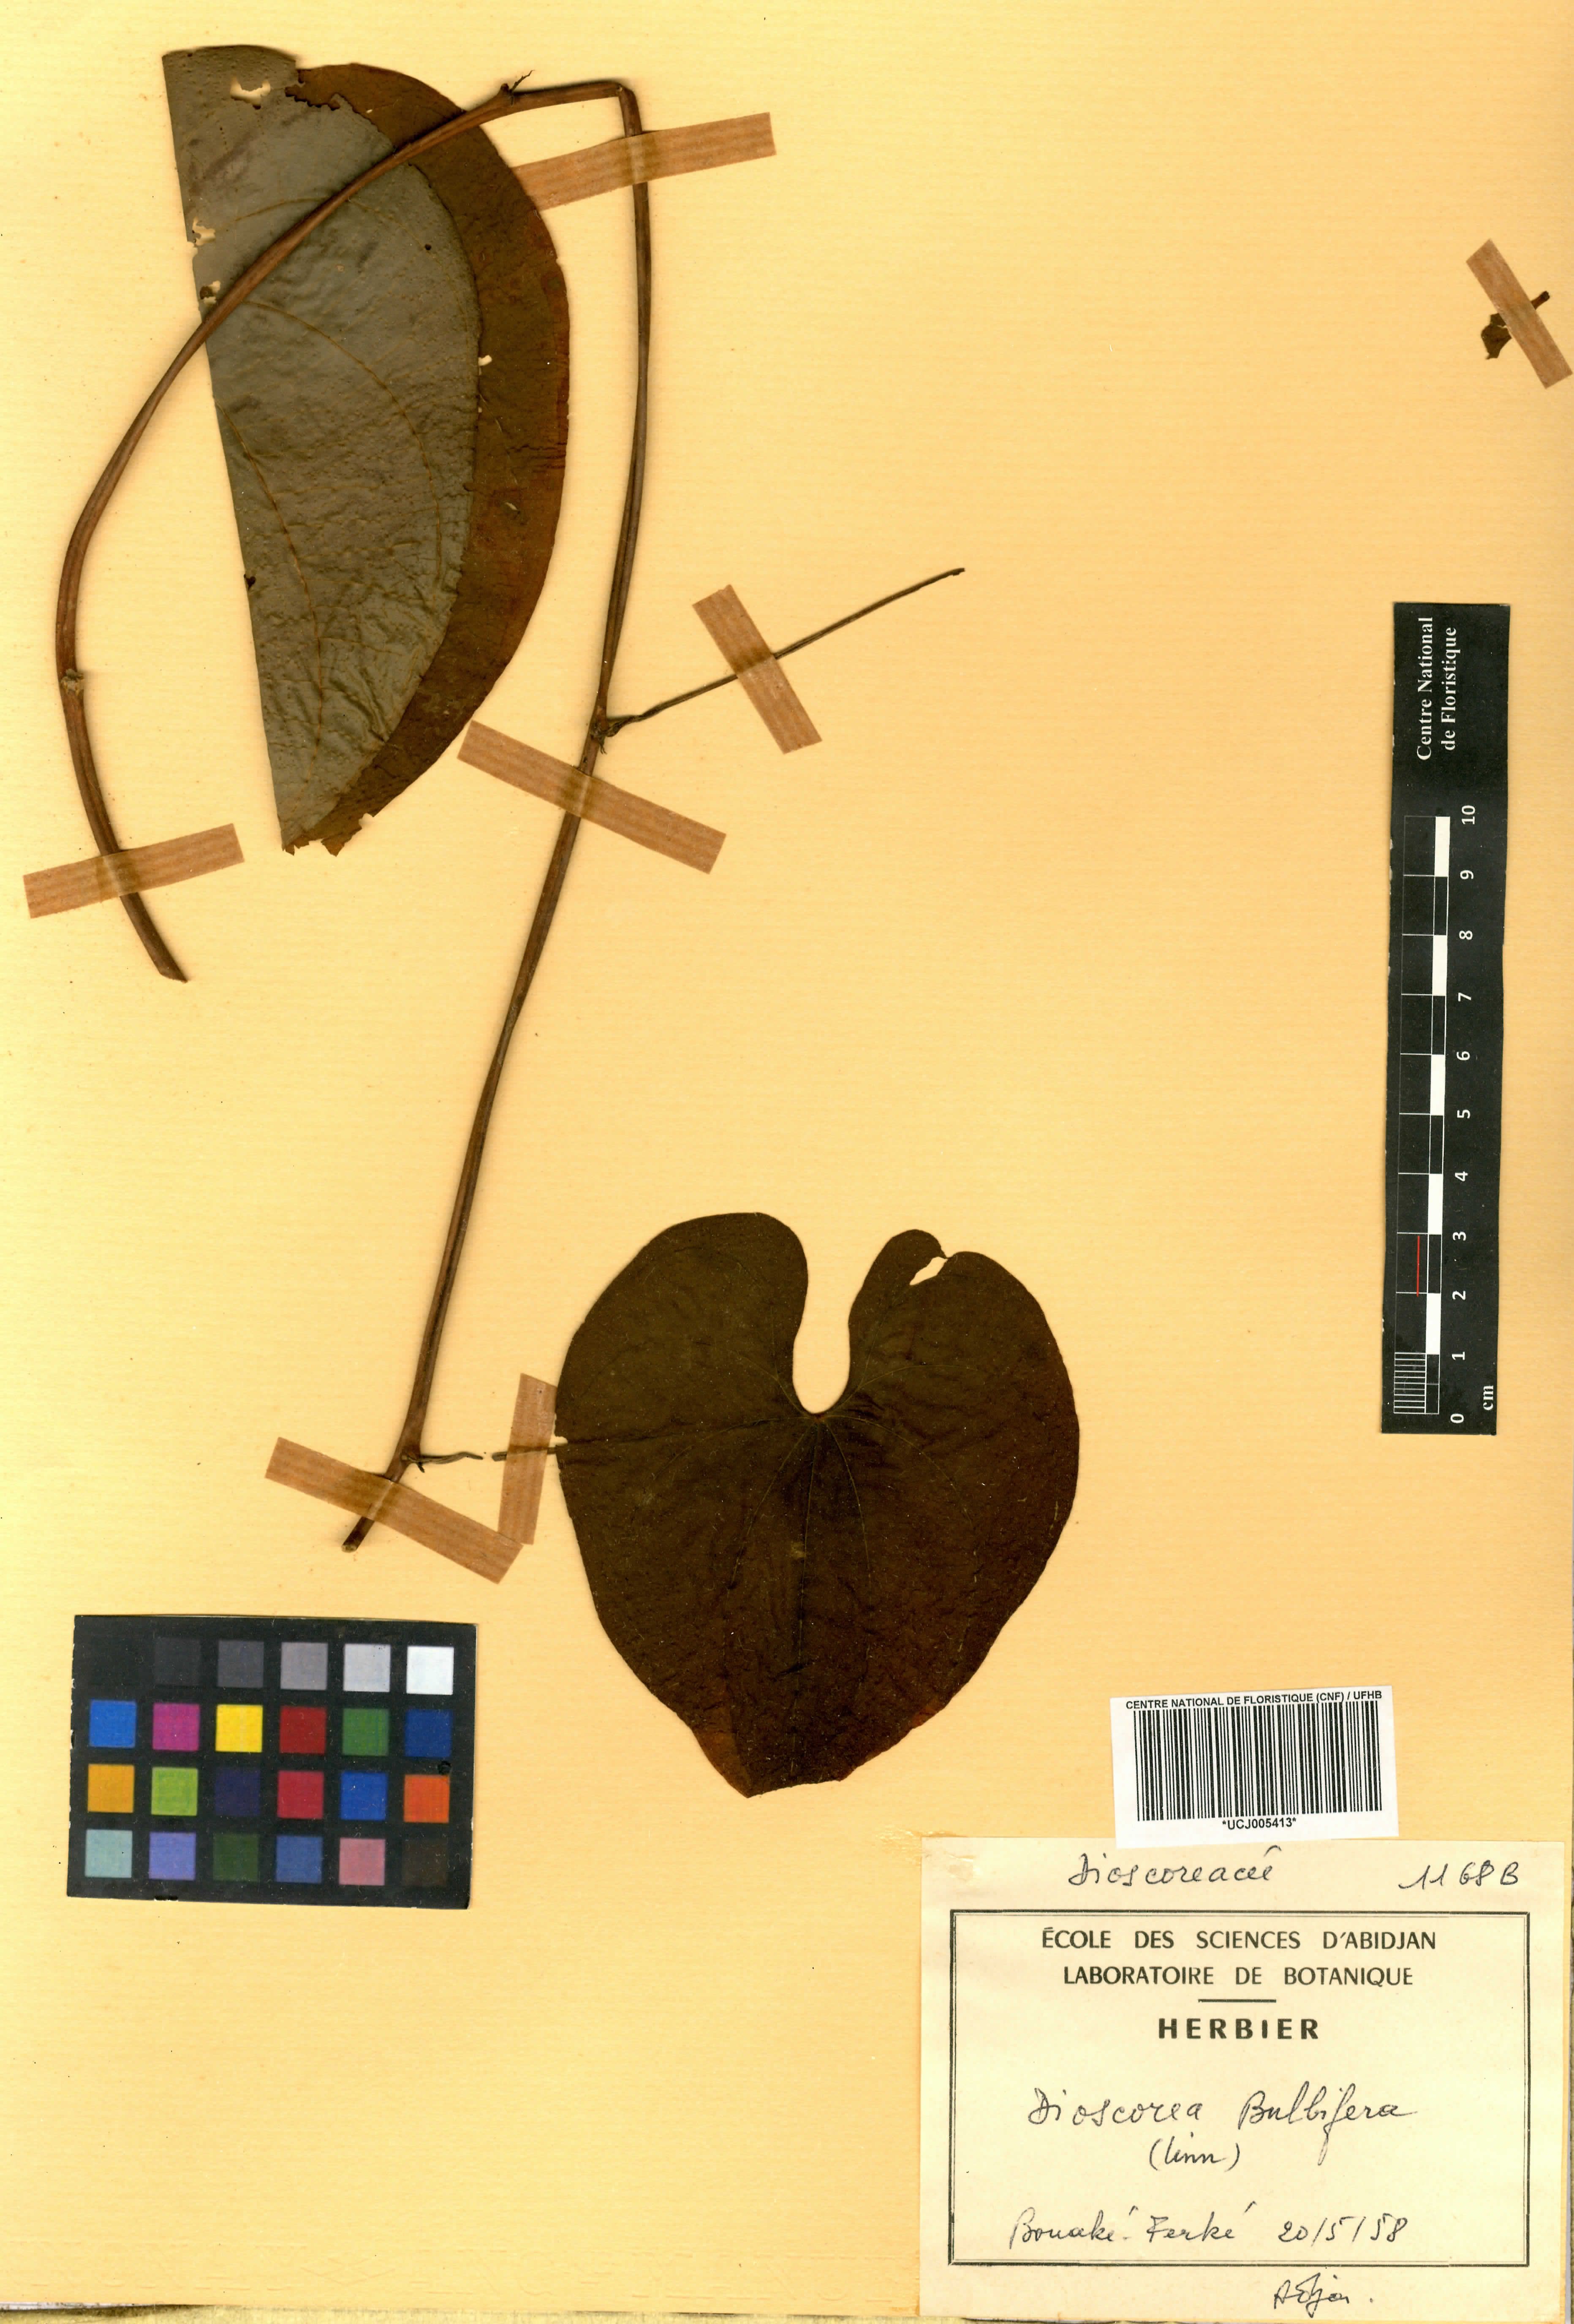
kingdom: Plantae
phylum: Tracheophyta
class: Liliopsida
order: Dioscoreales
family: Dioscoreaceae
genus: Dioscorea
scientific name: Dioscorea bulbifera
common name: Air yam
